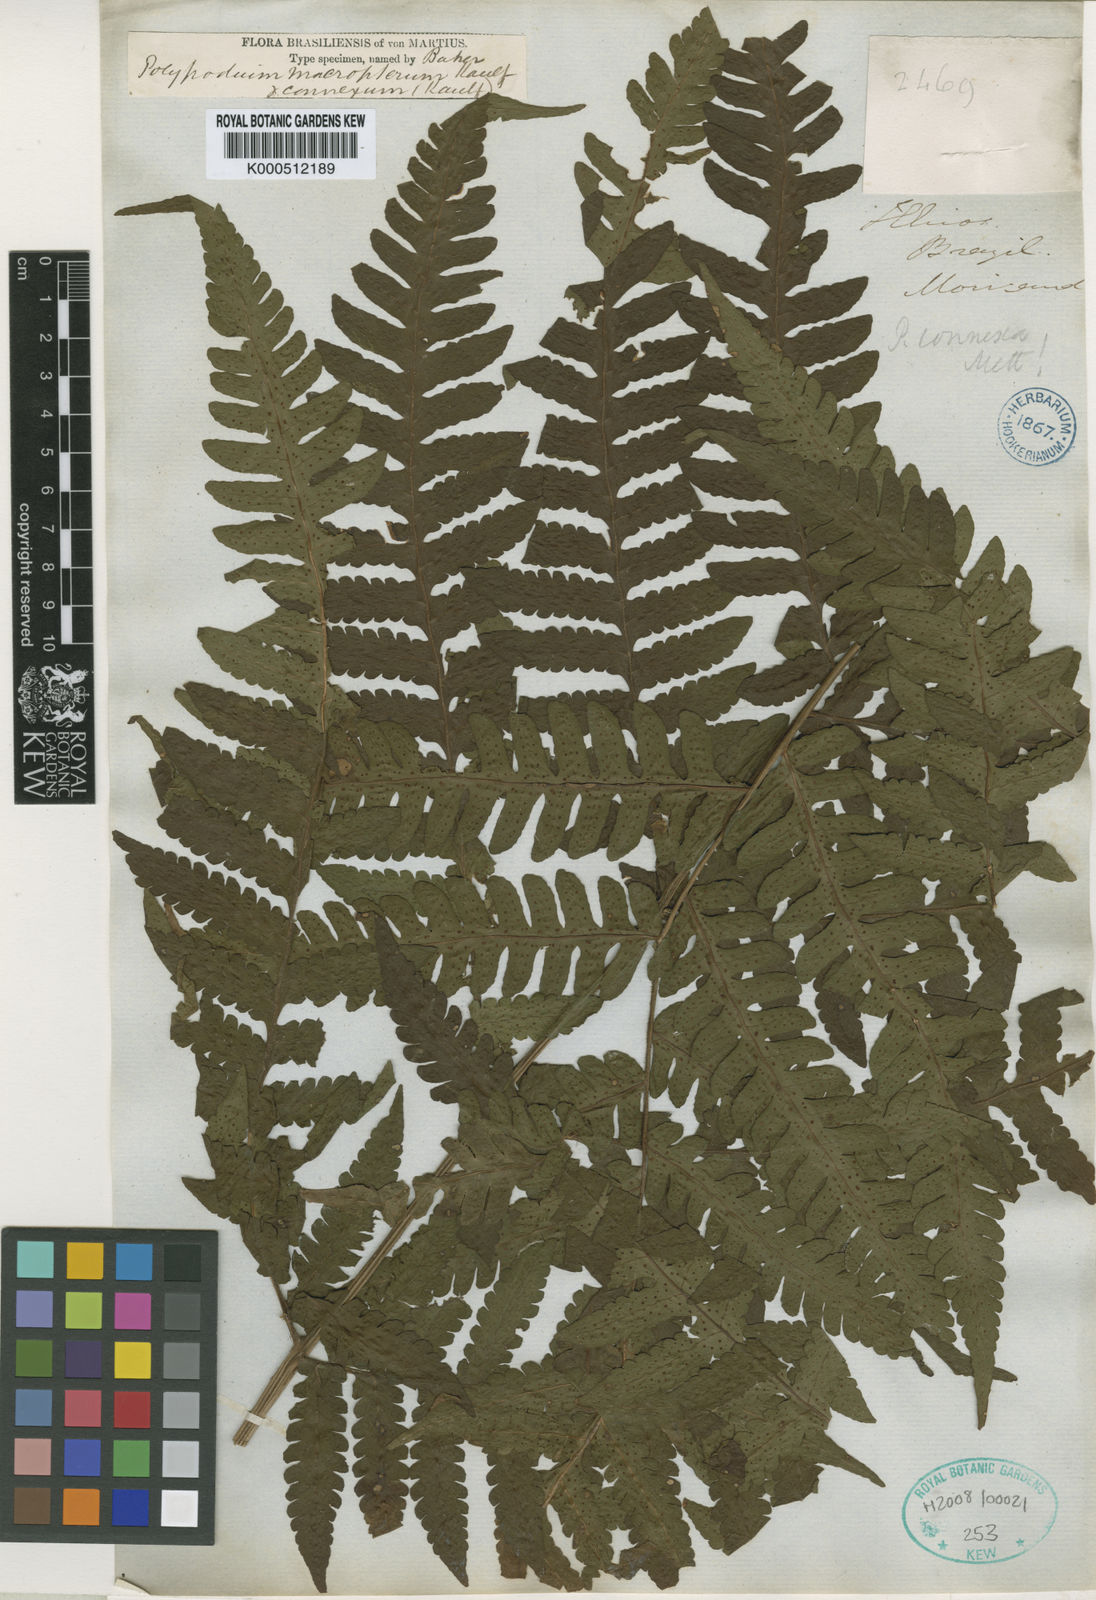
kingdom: Plantae
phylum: Tracheophyta
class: Polypodiopsida
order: Polypodiales
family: Dryopteridaceae
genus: Megalastrum
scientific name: Megalastrum grande
